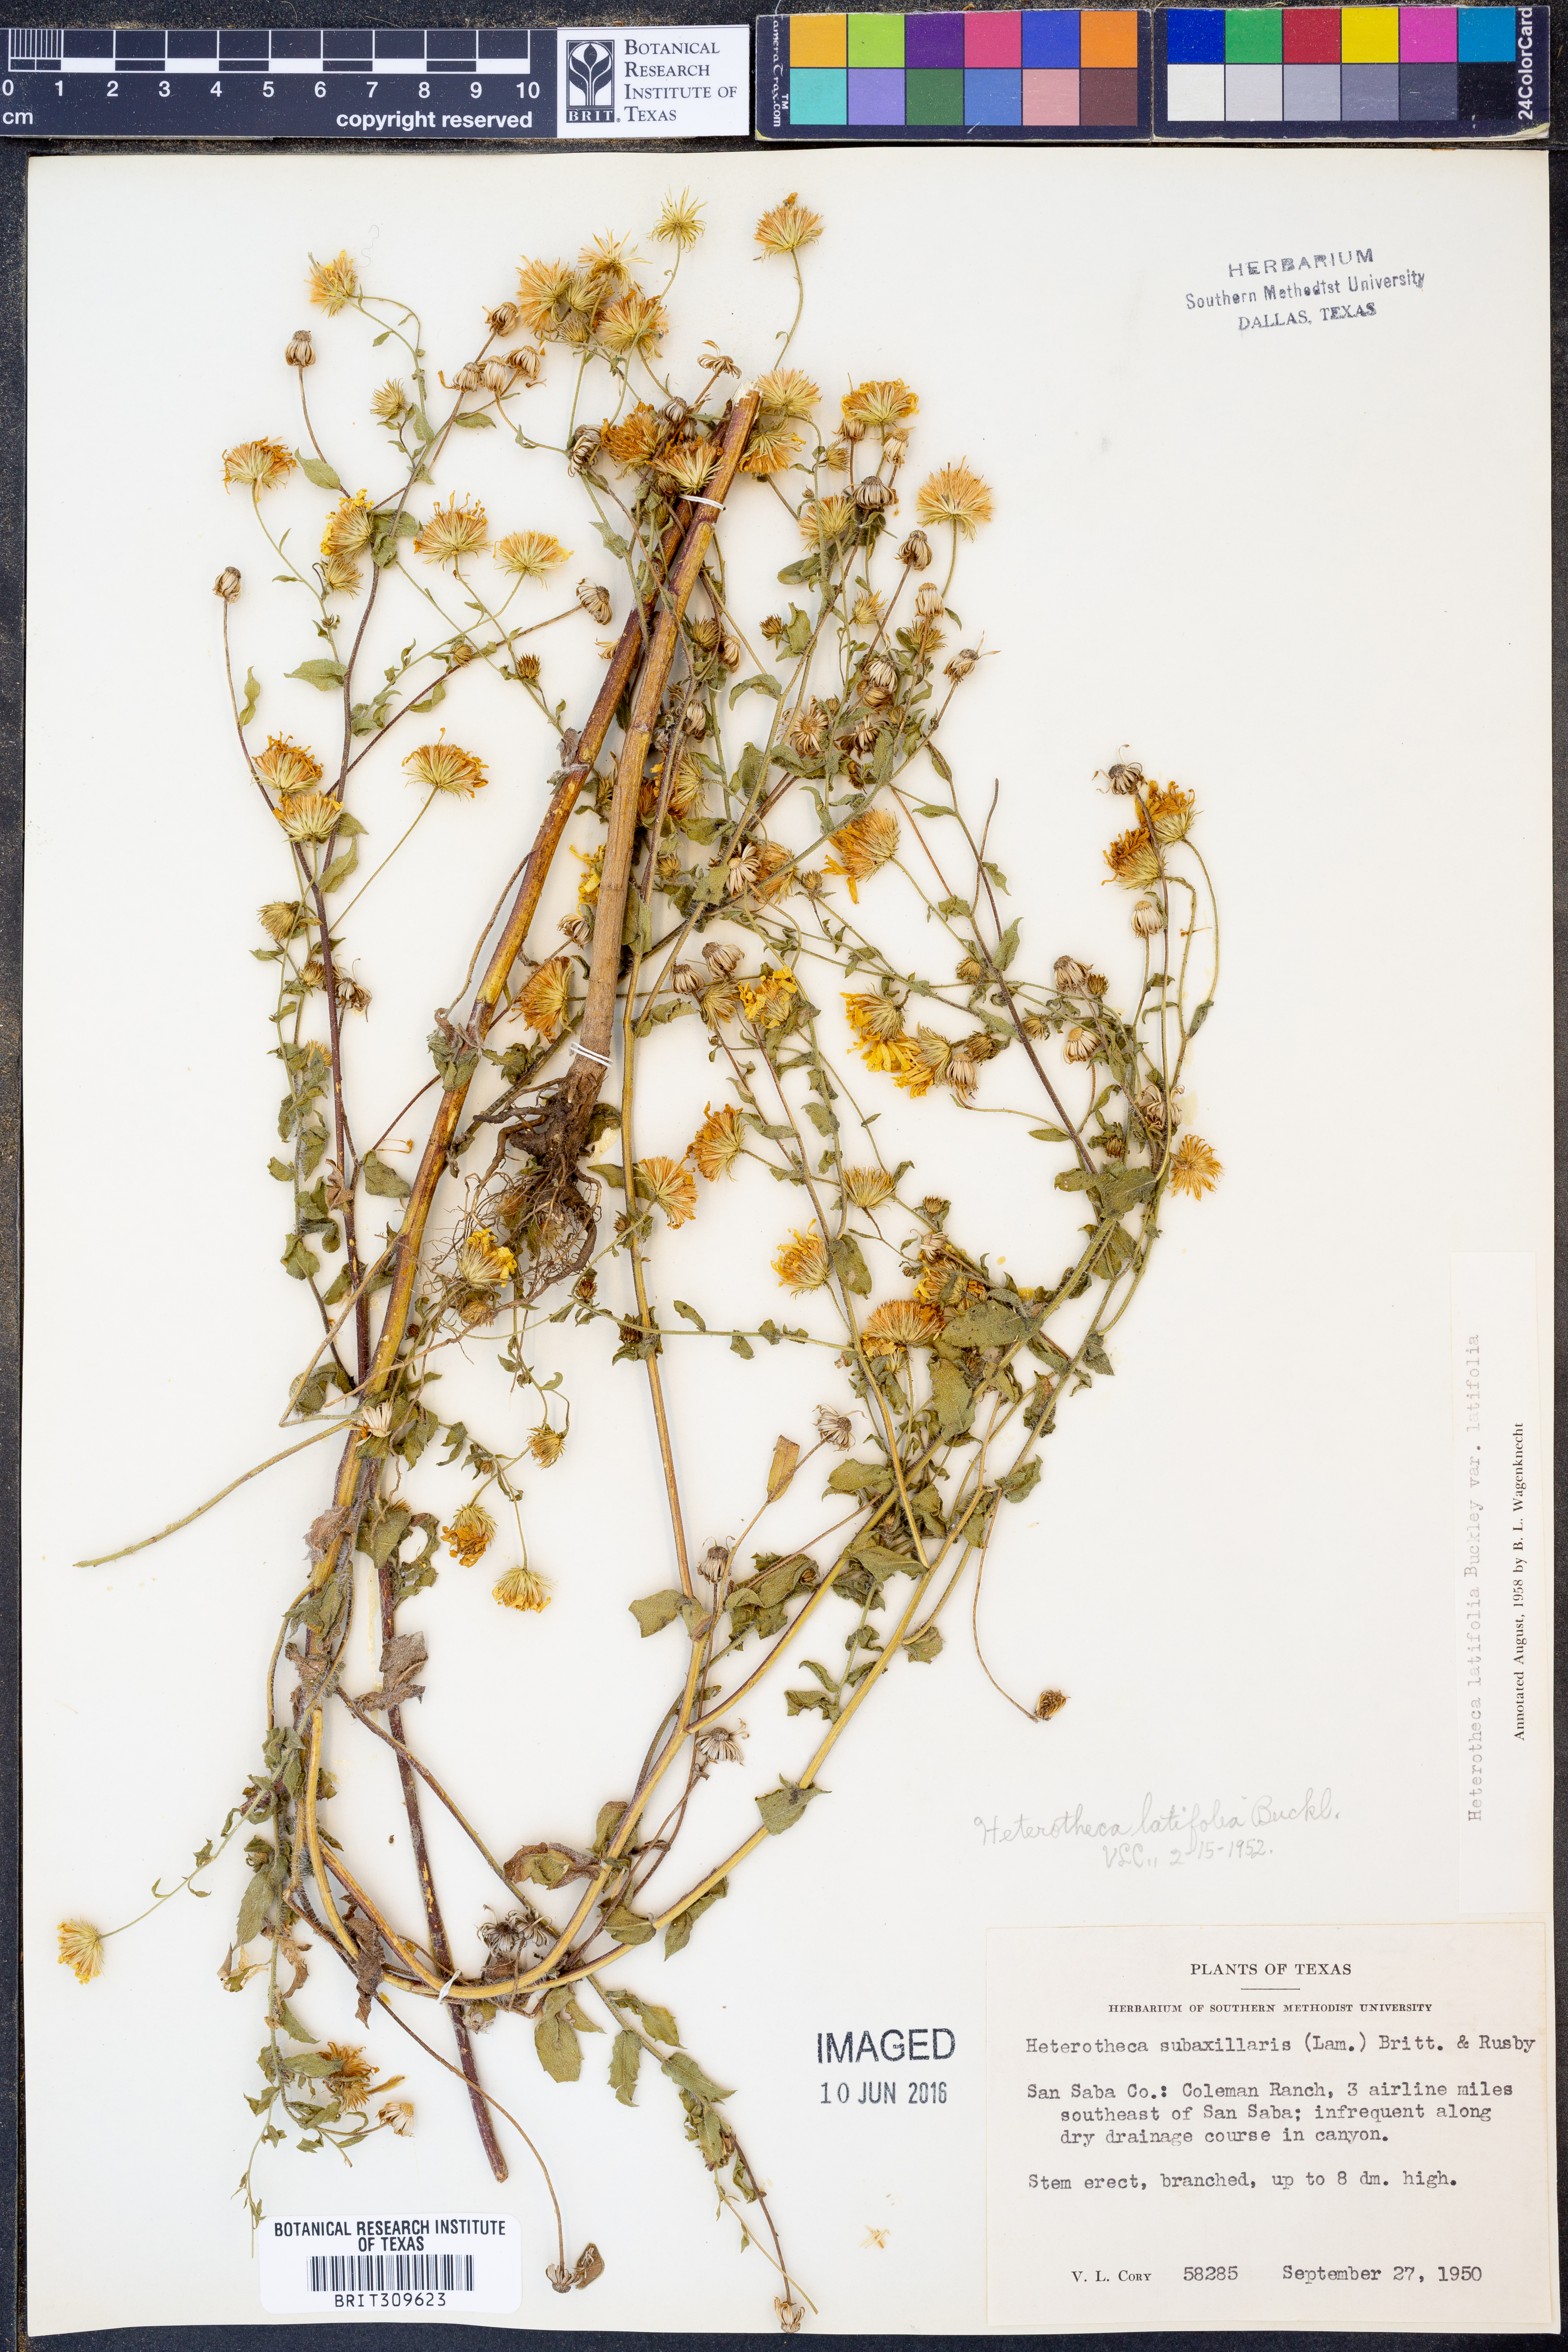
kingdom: Plantae
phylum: Tracheophyta
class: Magnoliopsida
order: Asterales
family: Asteraceae
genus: Heterotheca
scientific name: Heterotheca subaxillaris
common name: Camphorweed
